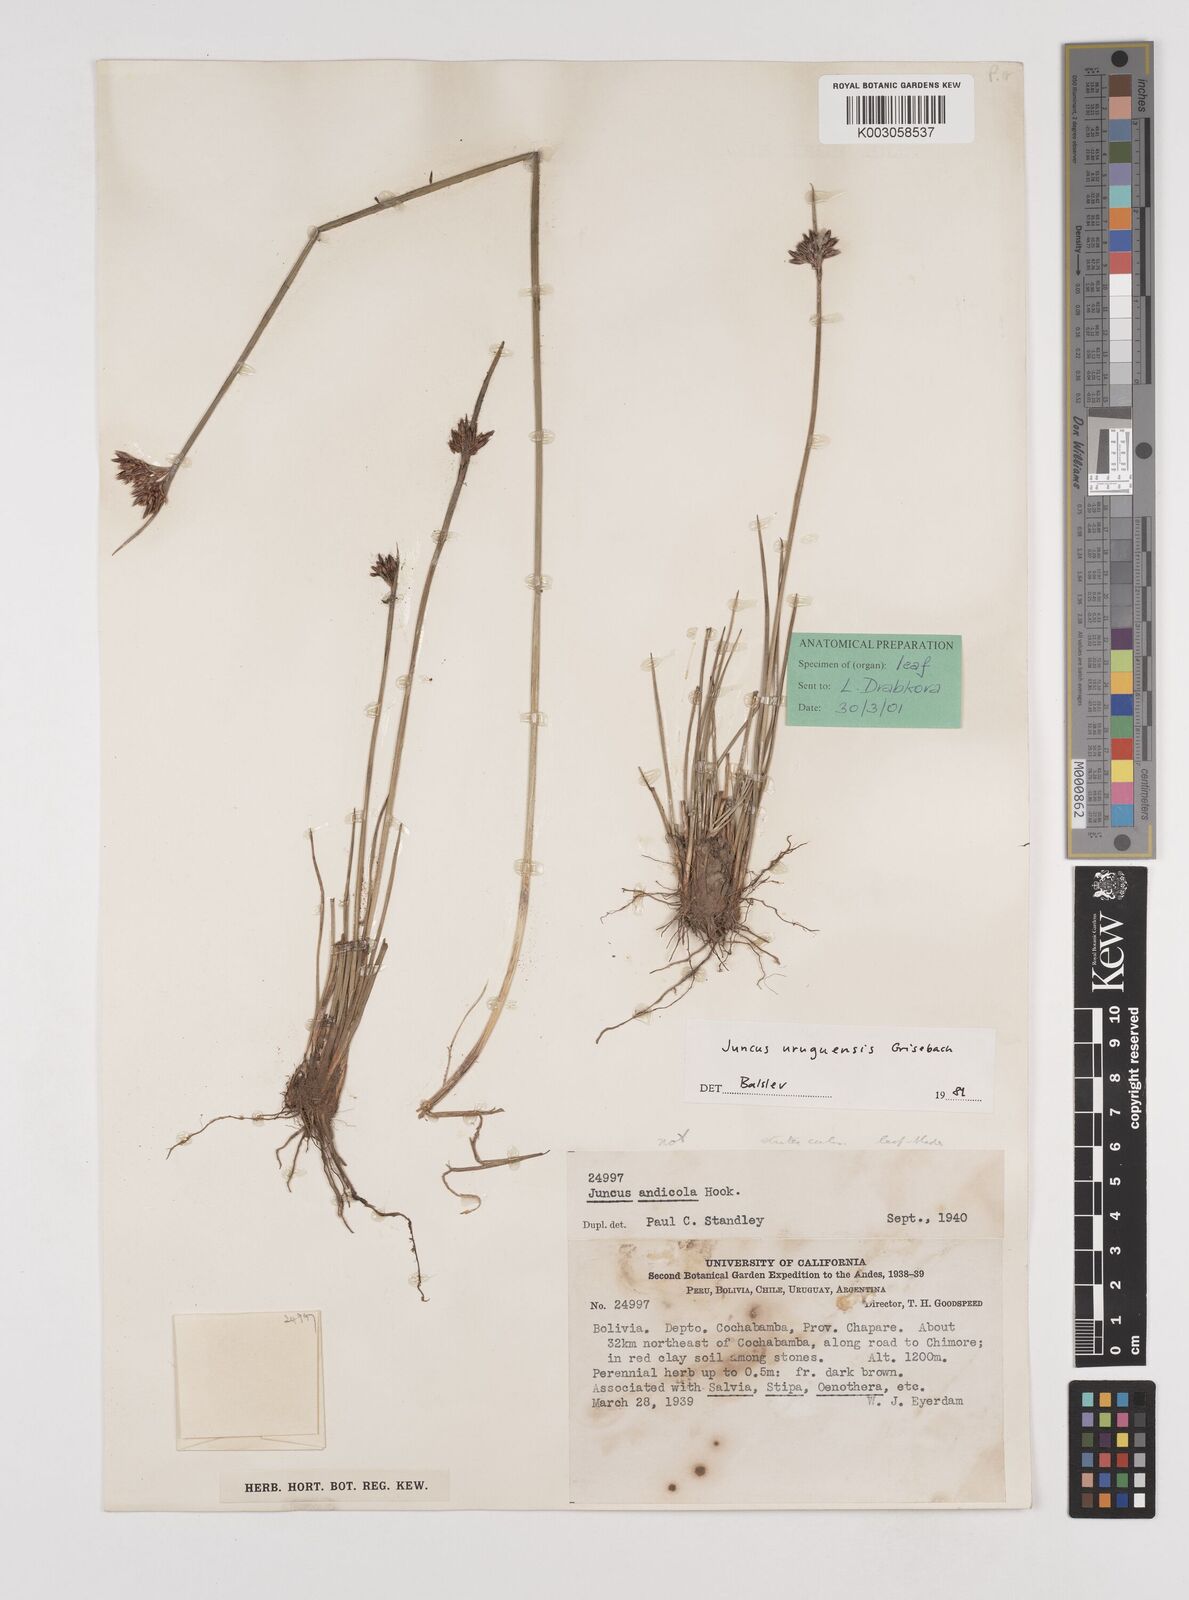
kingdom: Plantae
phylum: Tracheophyta
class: Liliopsida
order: Poales
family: Juncaceae
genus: Juncus
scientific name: Juncus uruguensis
